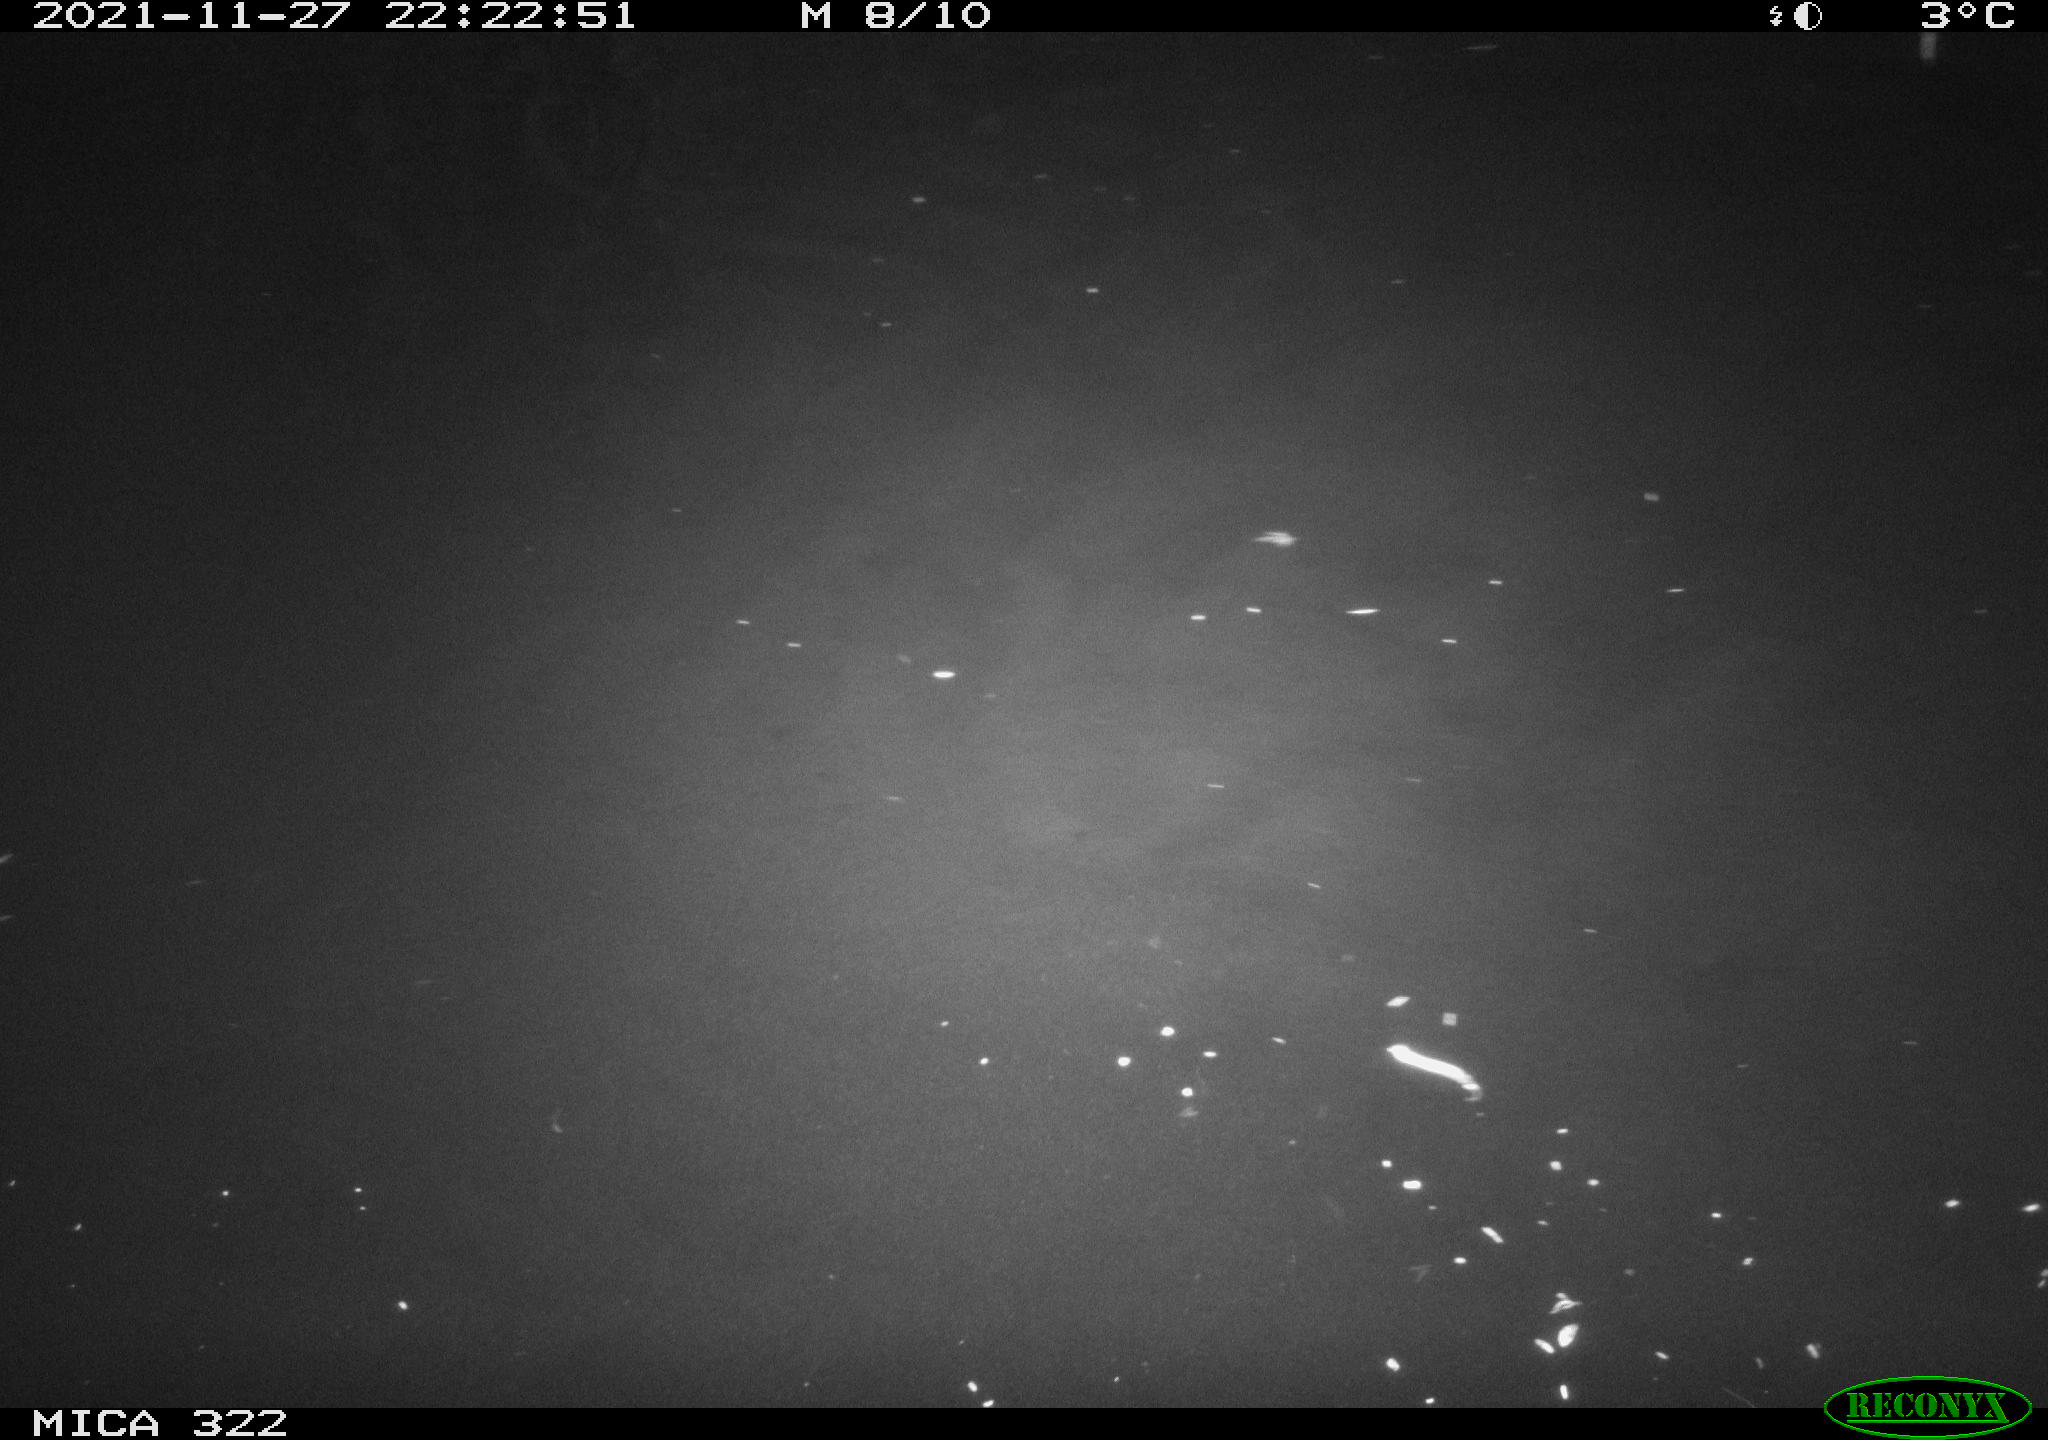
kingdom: Animalia
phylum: Chordata
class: Mammalia
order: Rodentia
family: Muridae
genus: Rattus
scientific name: Rattus norvegicus
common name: Brown rat
